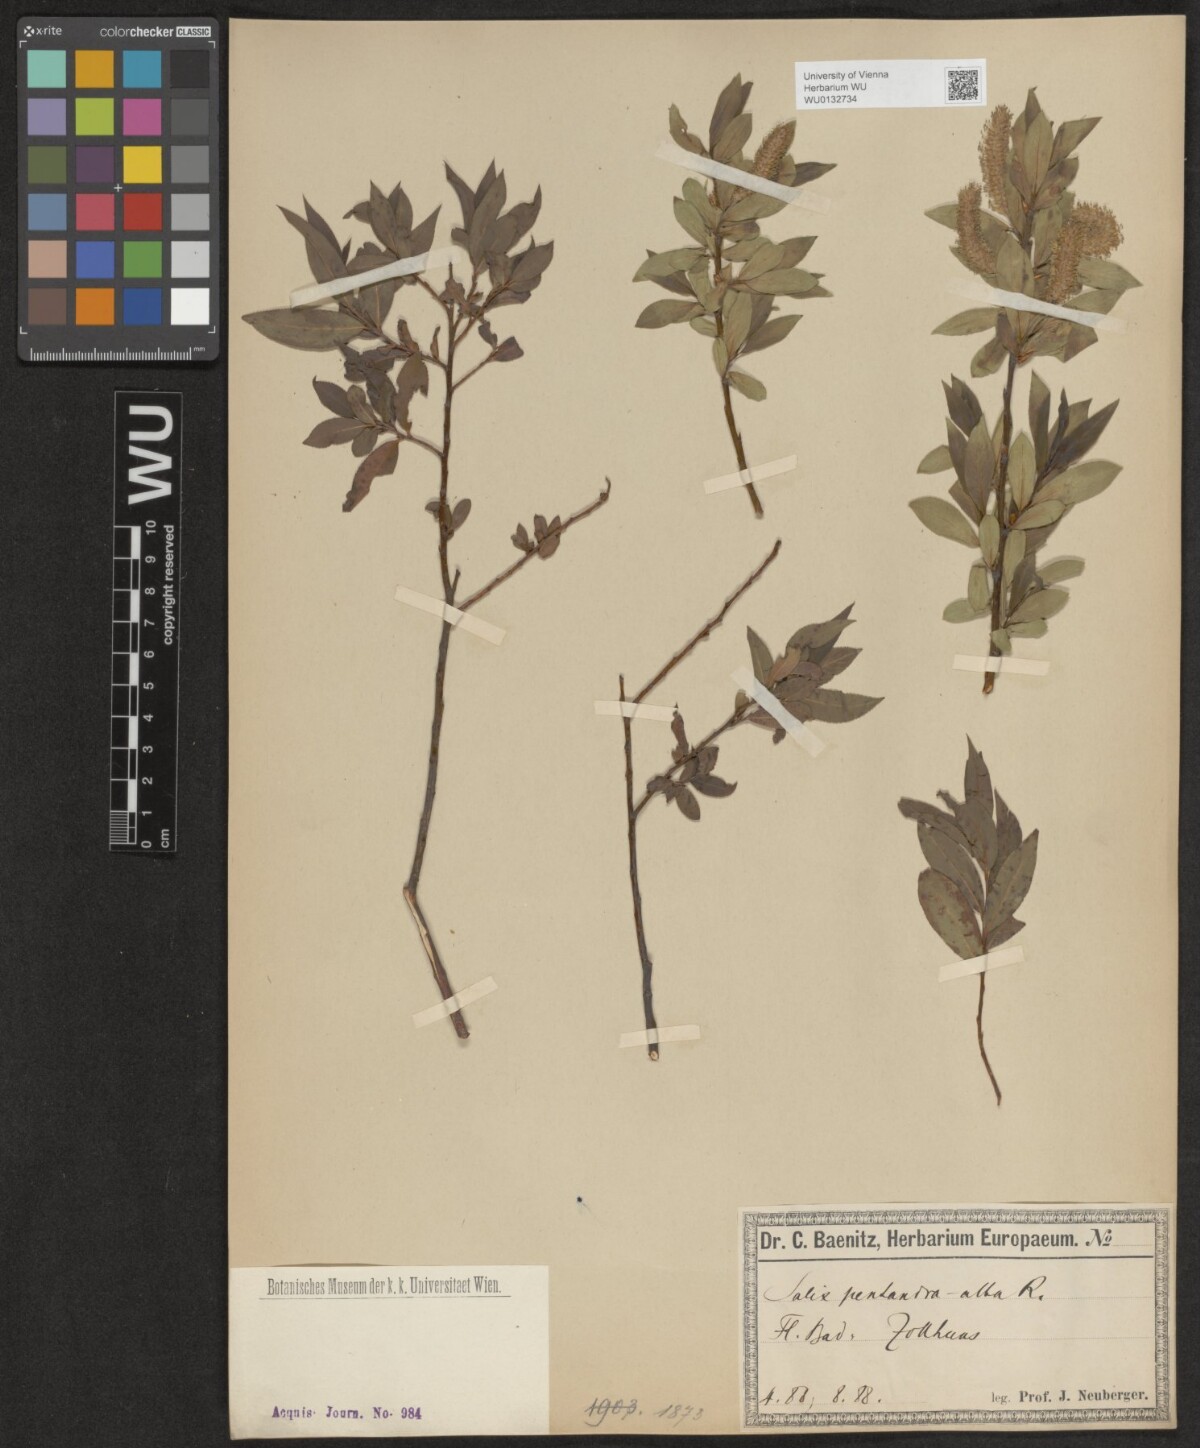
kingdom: Plantae
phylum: Tracheophyta
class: Magnoliopsida
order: Malpighiales
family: Salicaceae
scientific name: Salicaceae
